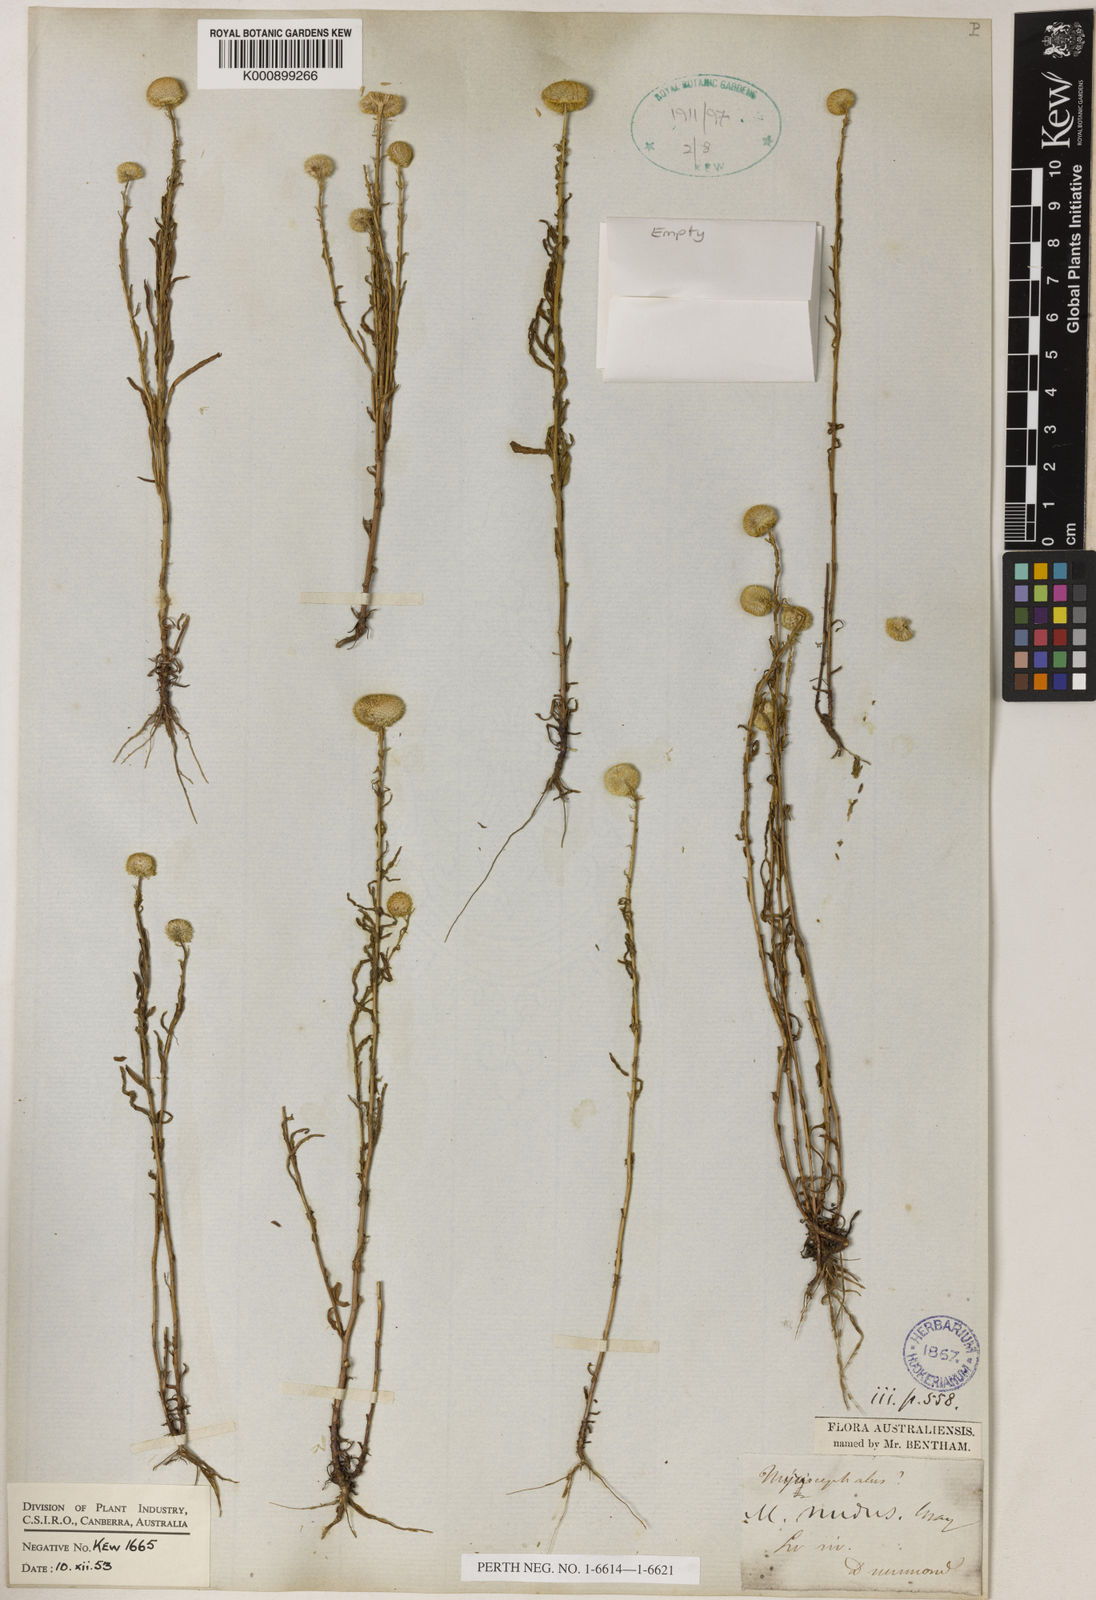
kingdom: Plantae
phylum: Tracheophyta
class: Magnoliopsida
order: Asterales
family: Asteraceae
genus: Myriocephalus
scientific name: Myriocephalus nudus
